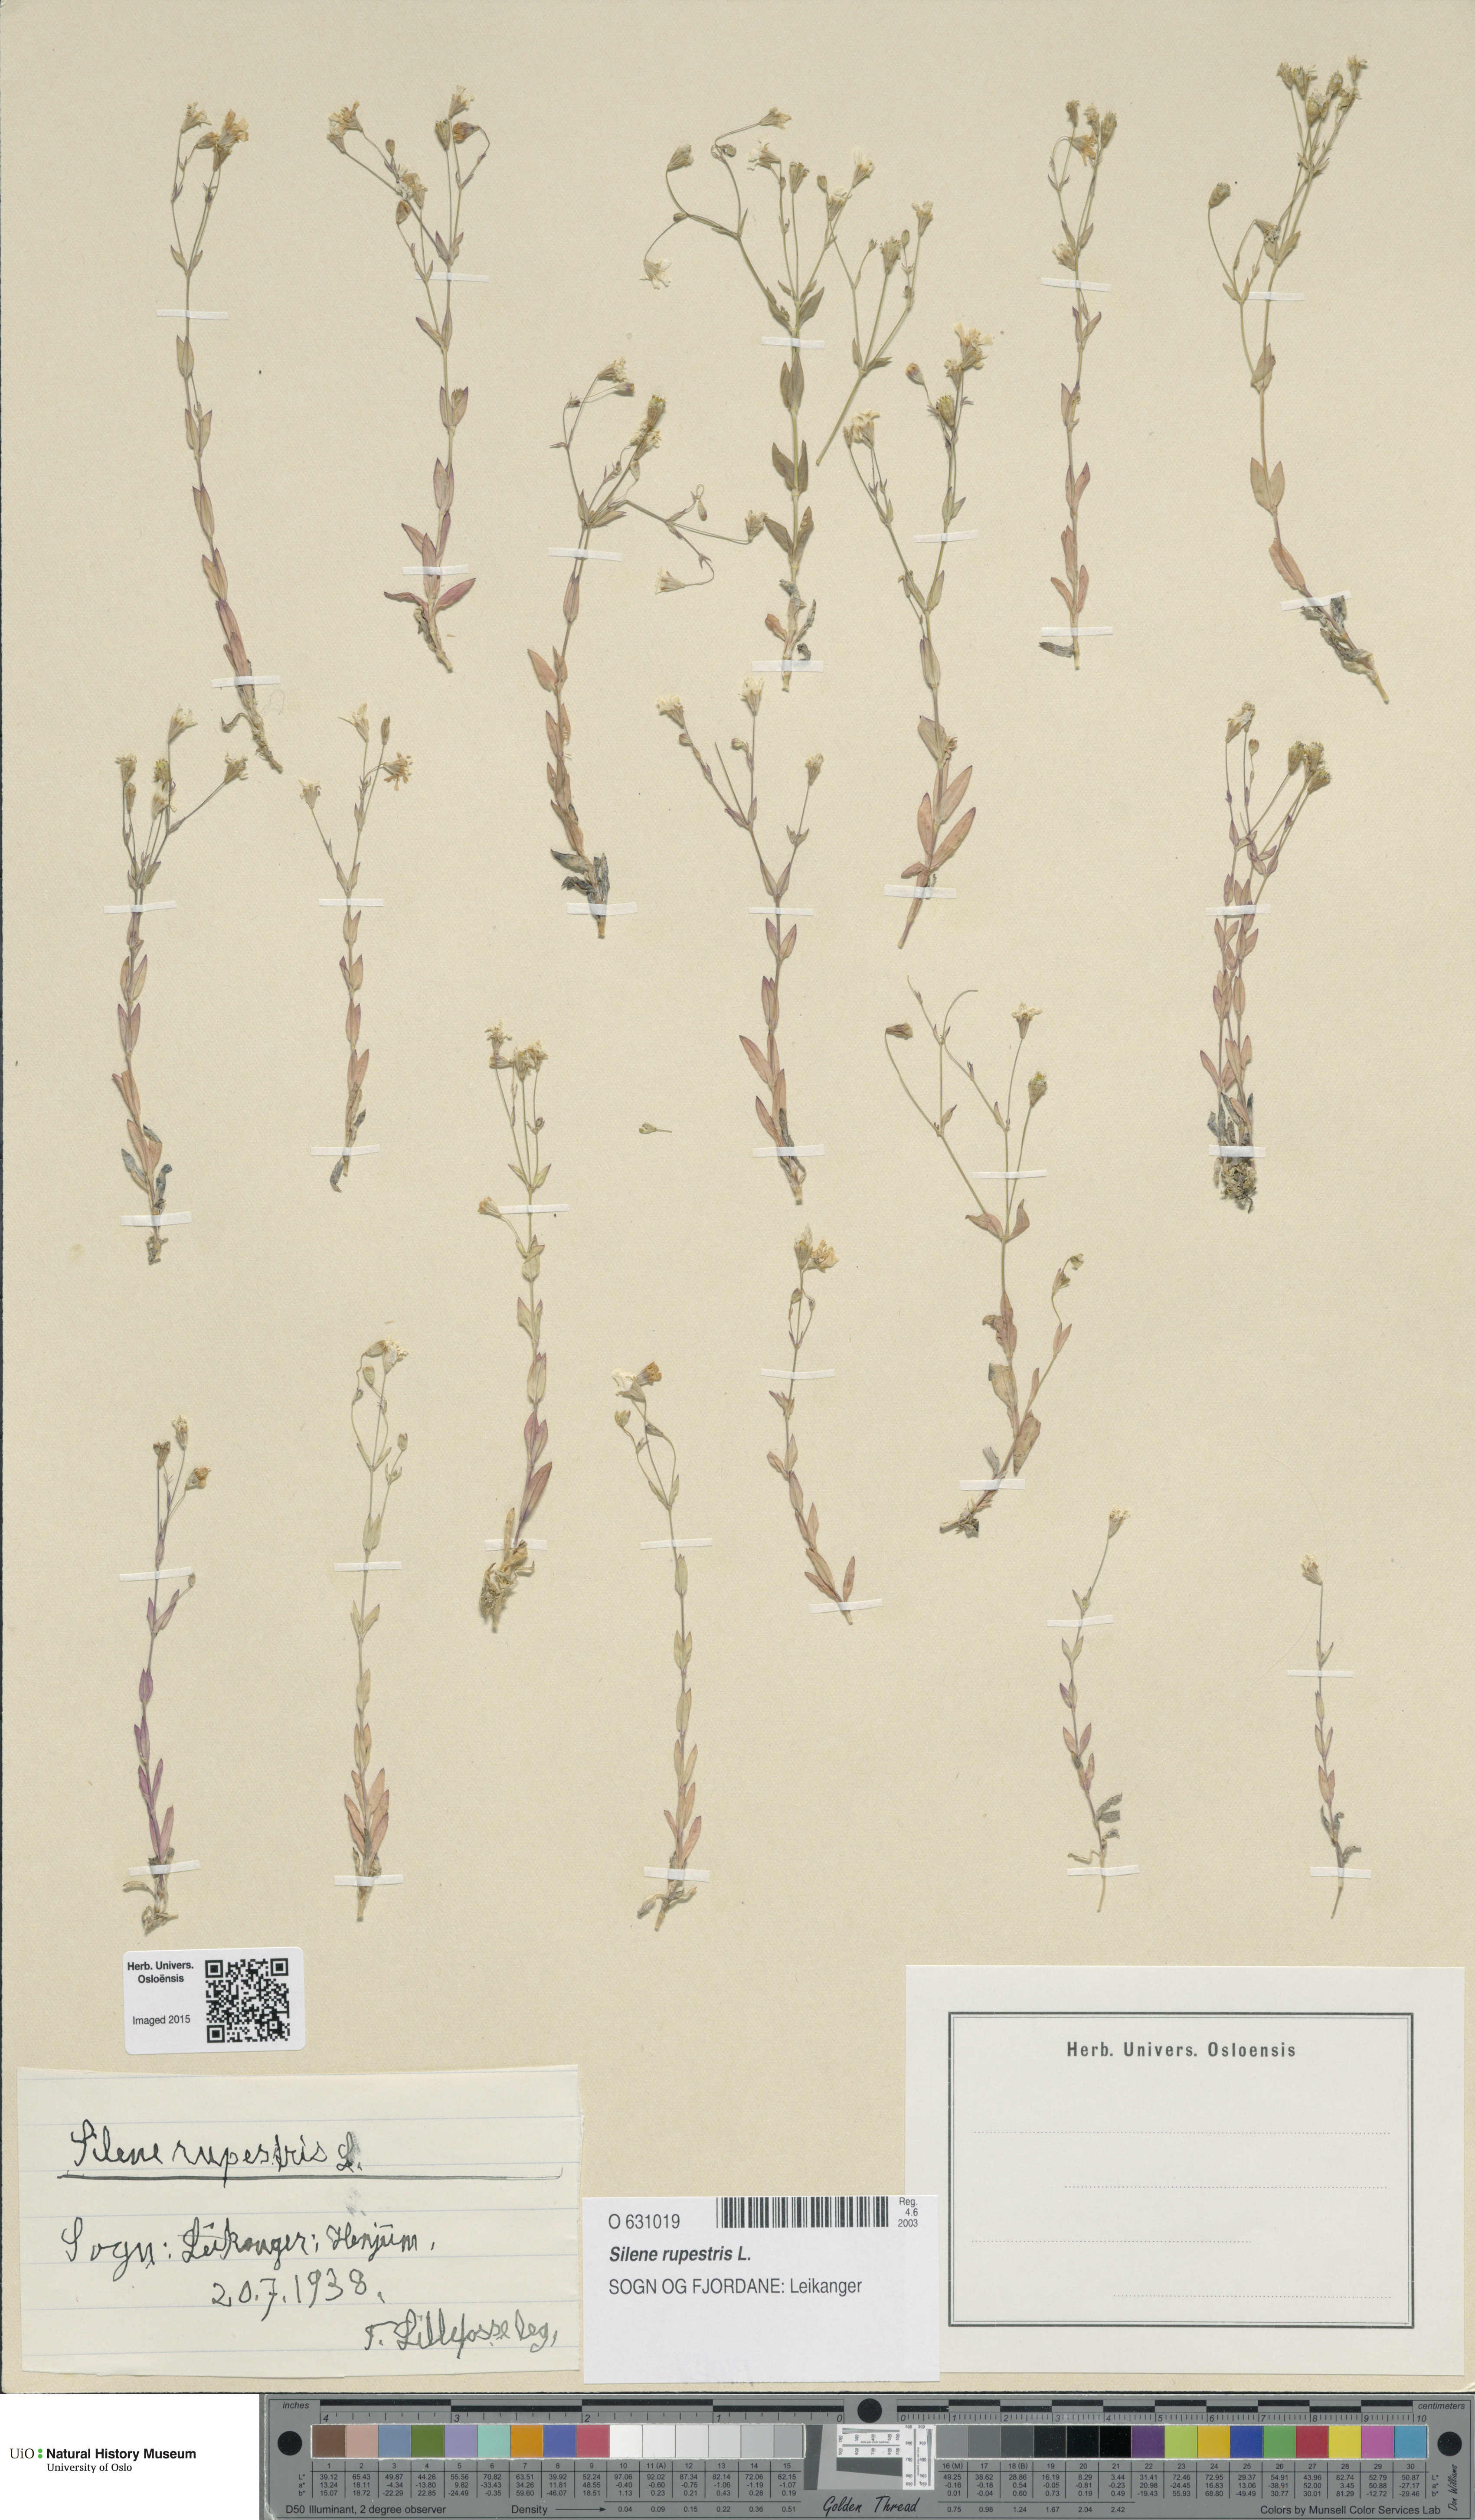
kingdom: Plantae
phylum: Tracheophyta
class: Magnoliopsida
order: Caryophyllales
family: Caryophyllaceae
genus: Atocion
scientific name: Atocion rupestre
